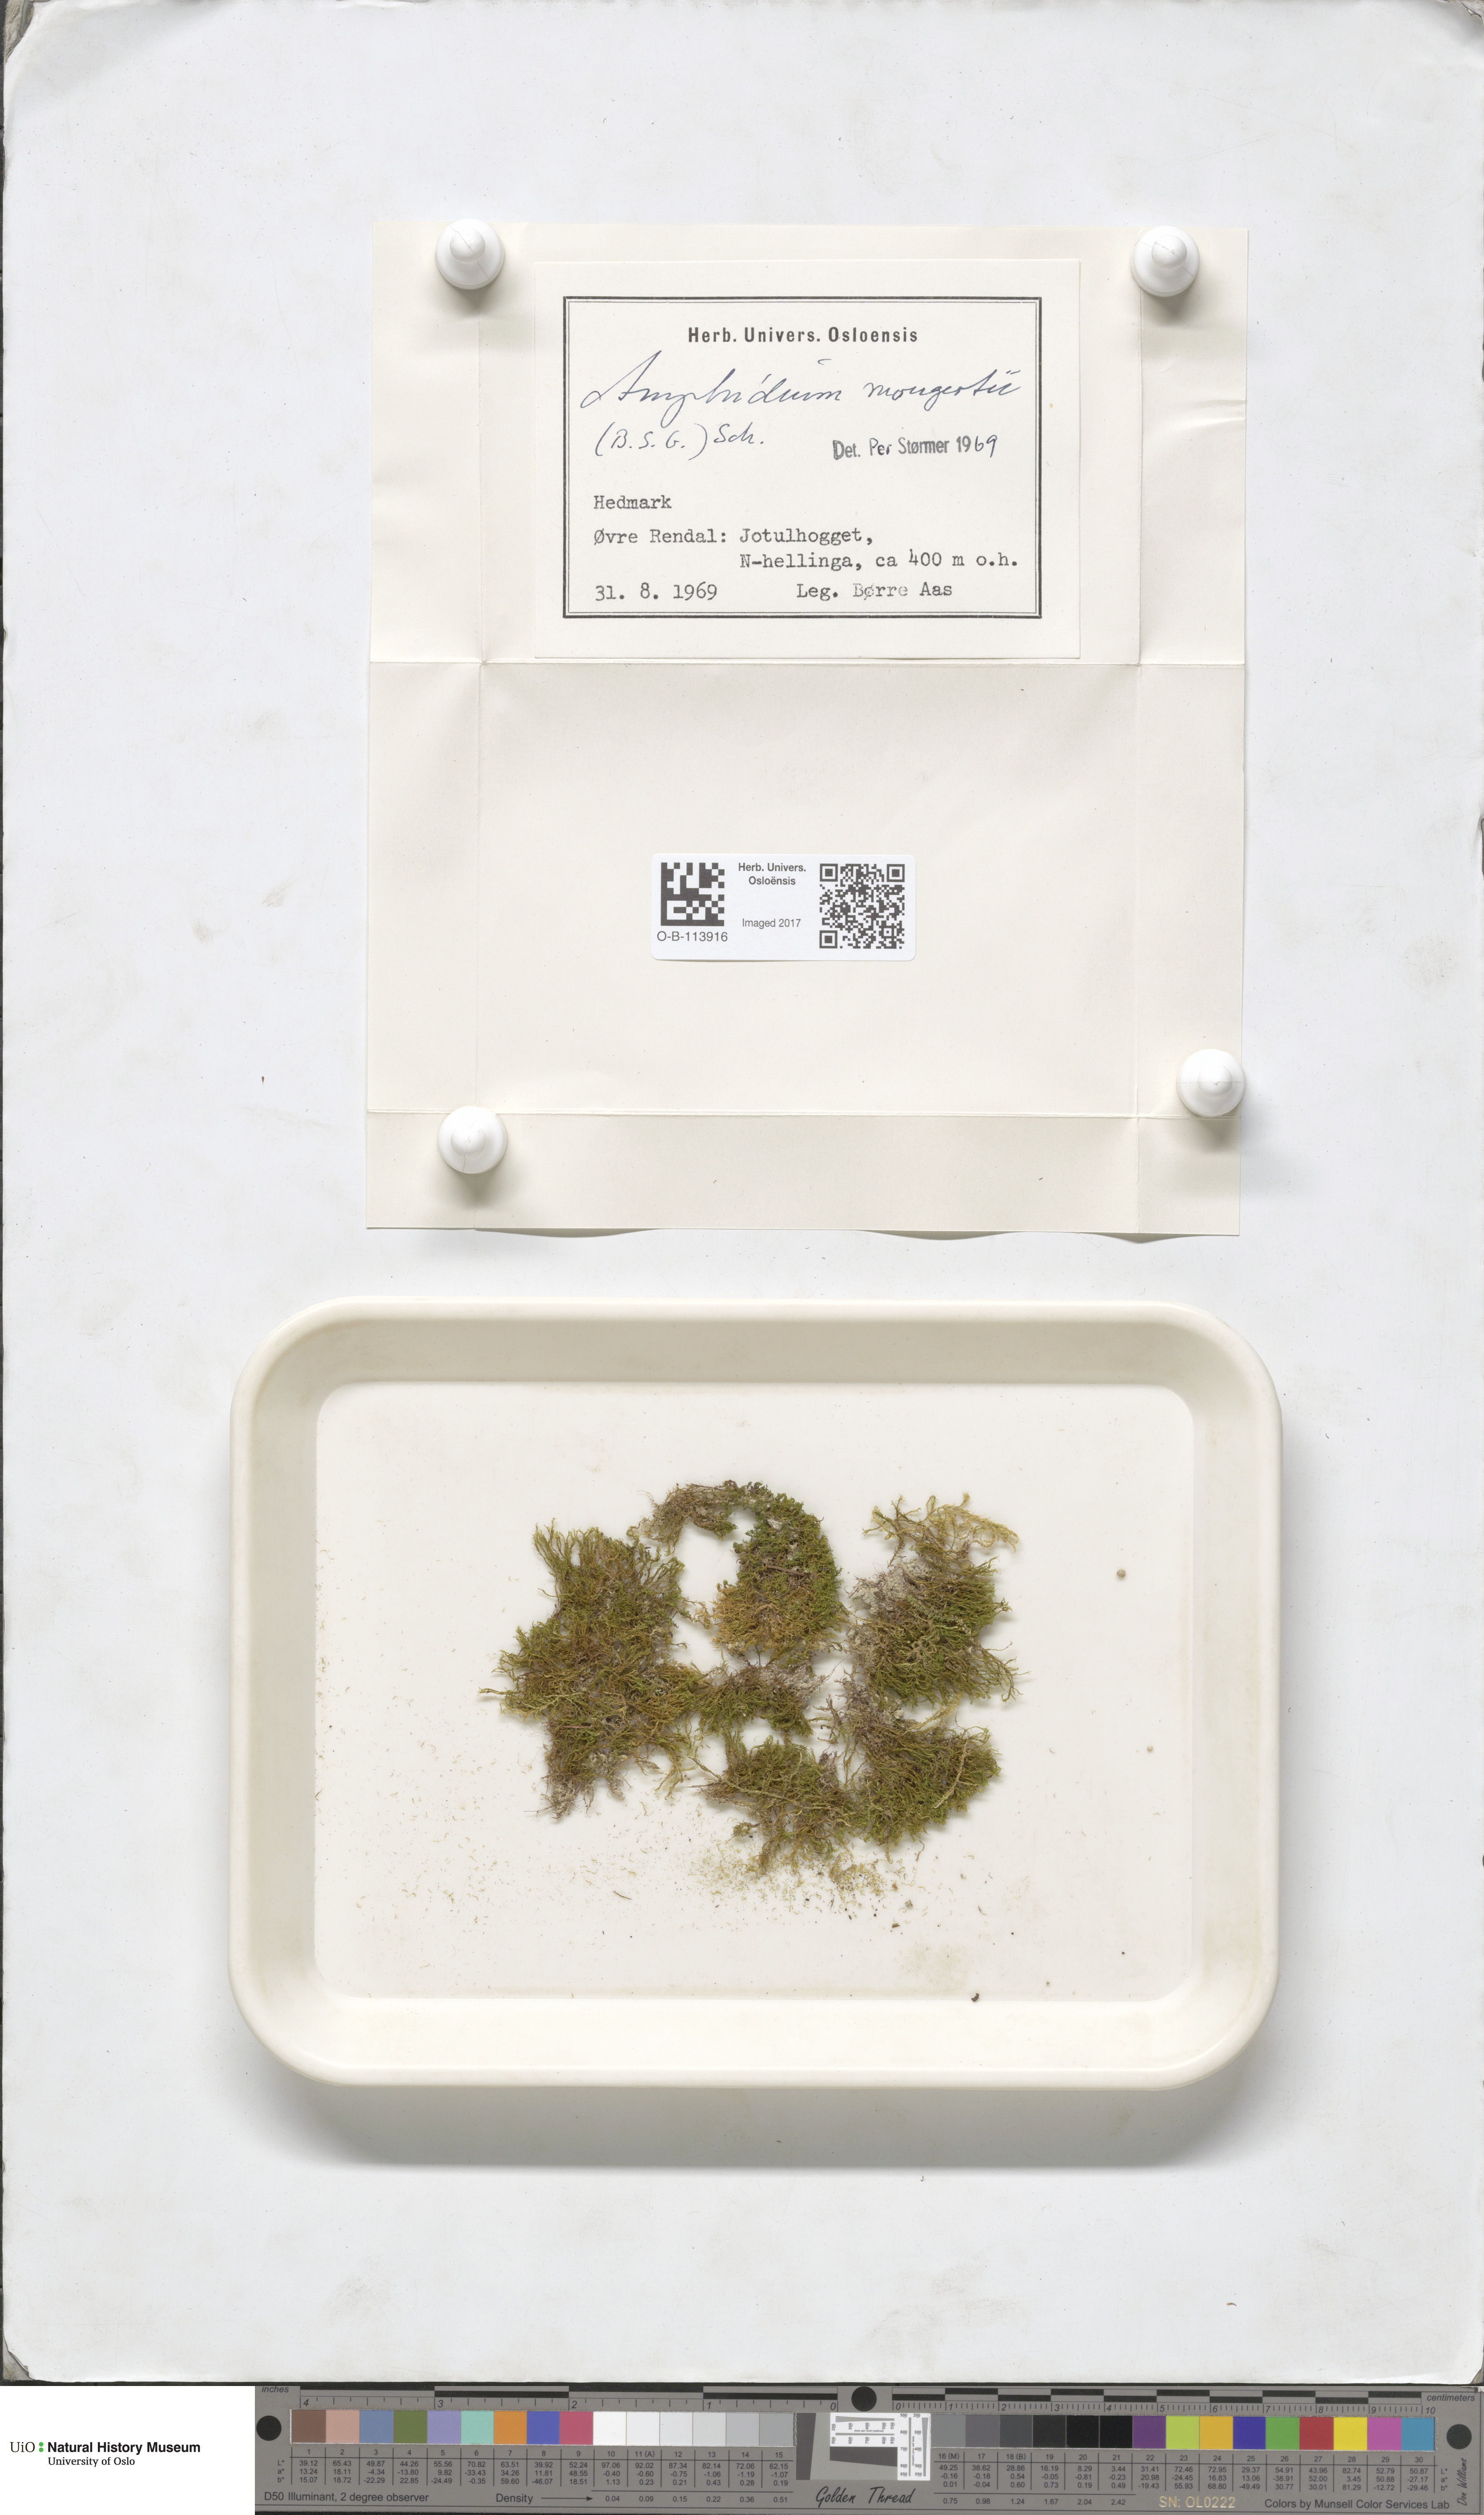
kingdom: Plantae
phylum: Bryophyta
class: Bryopsida
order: Dicranales
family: Amphidiaceae
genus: Amphidium
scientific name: Amphidium mougeotii
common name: Mougeot's yoke moss
